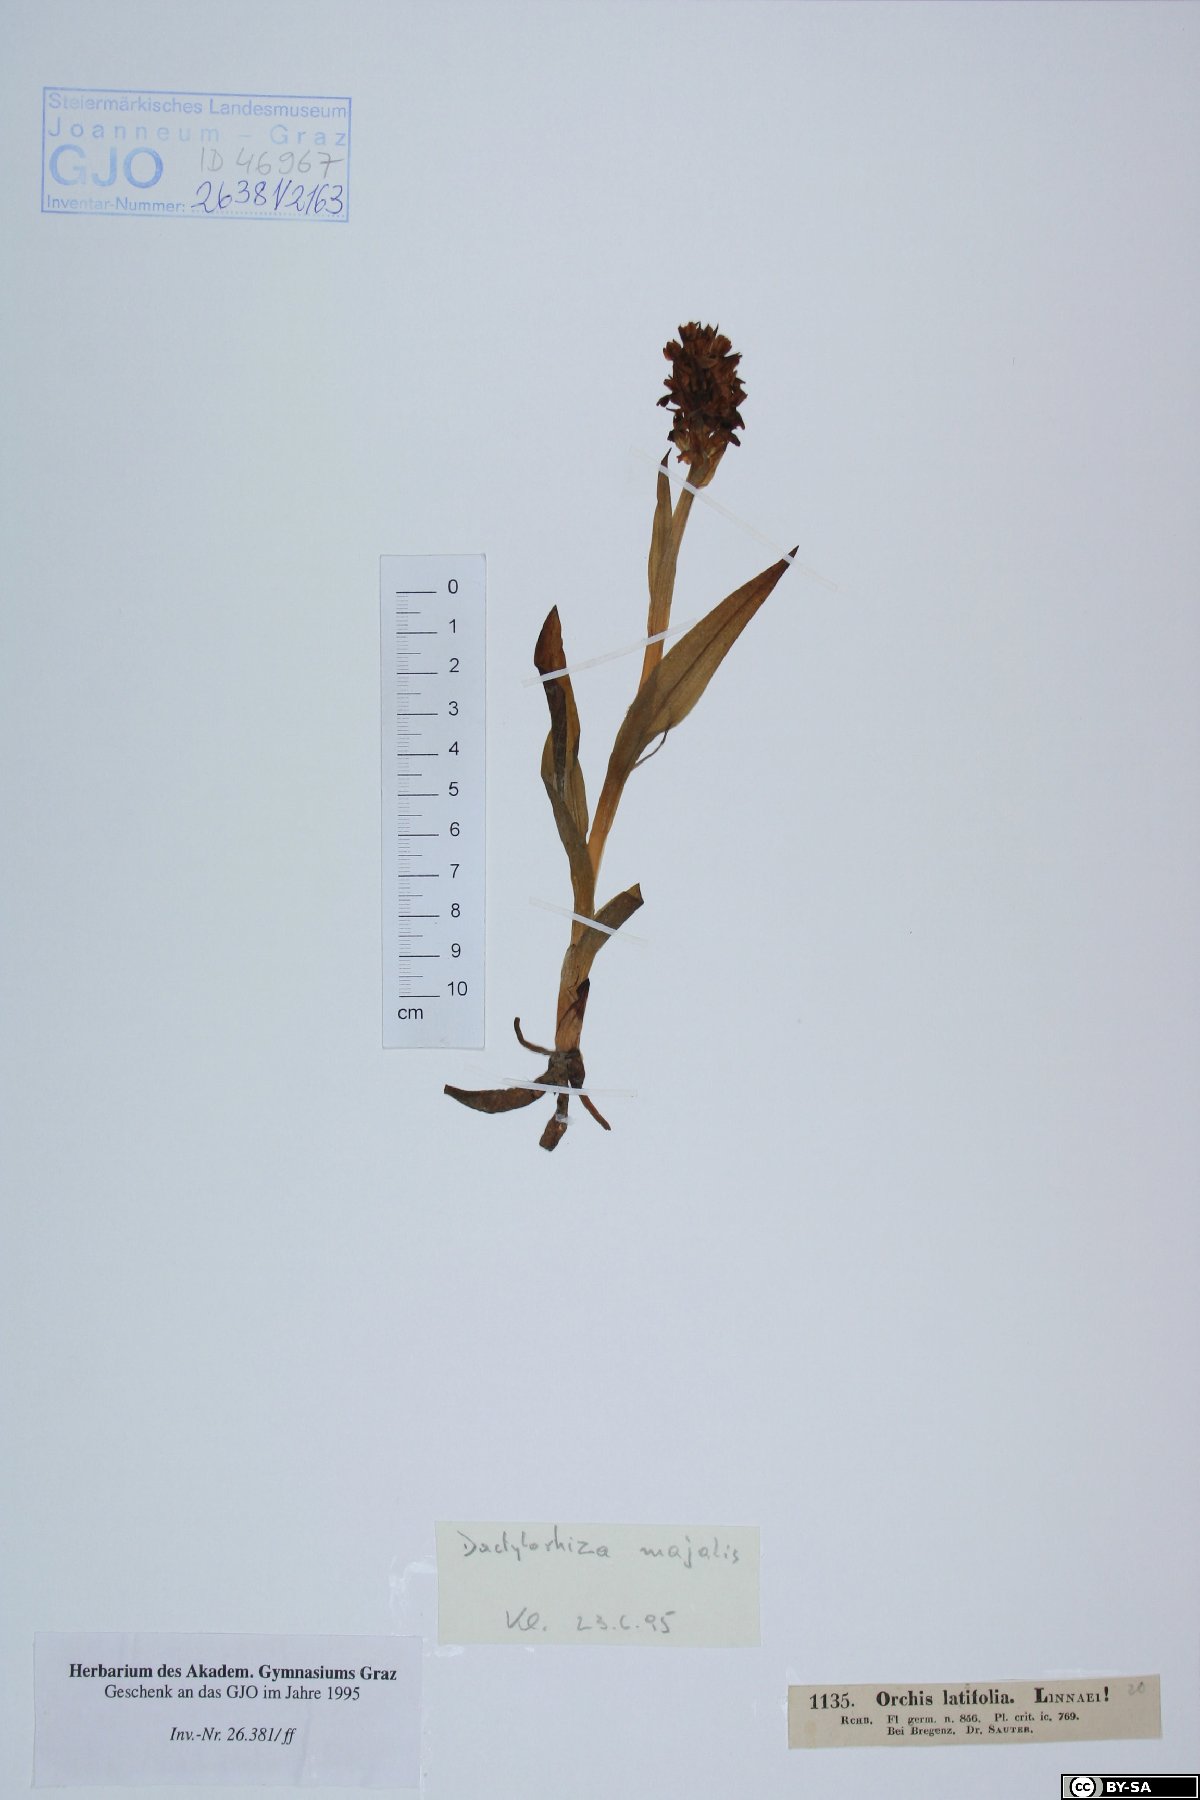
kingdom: Plantae
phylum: Tracheophyta
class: Liliopsida
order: Asparagales
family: Orchidaceae
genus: Dactylorhiza
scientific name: Dactylorhiza majalis
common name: Marsh orchid
